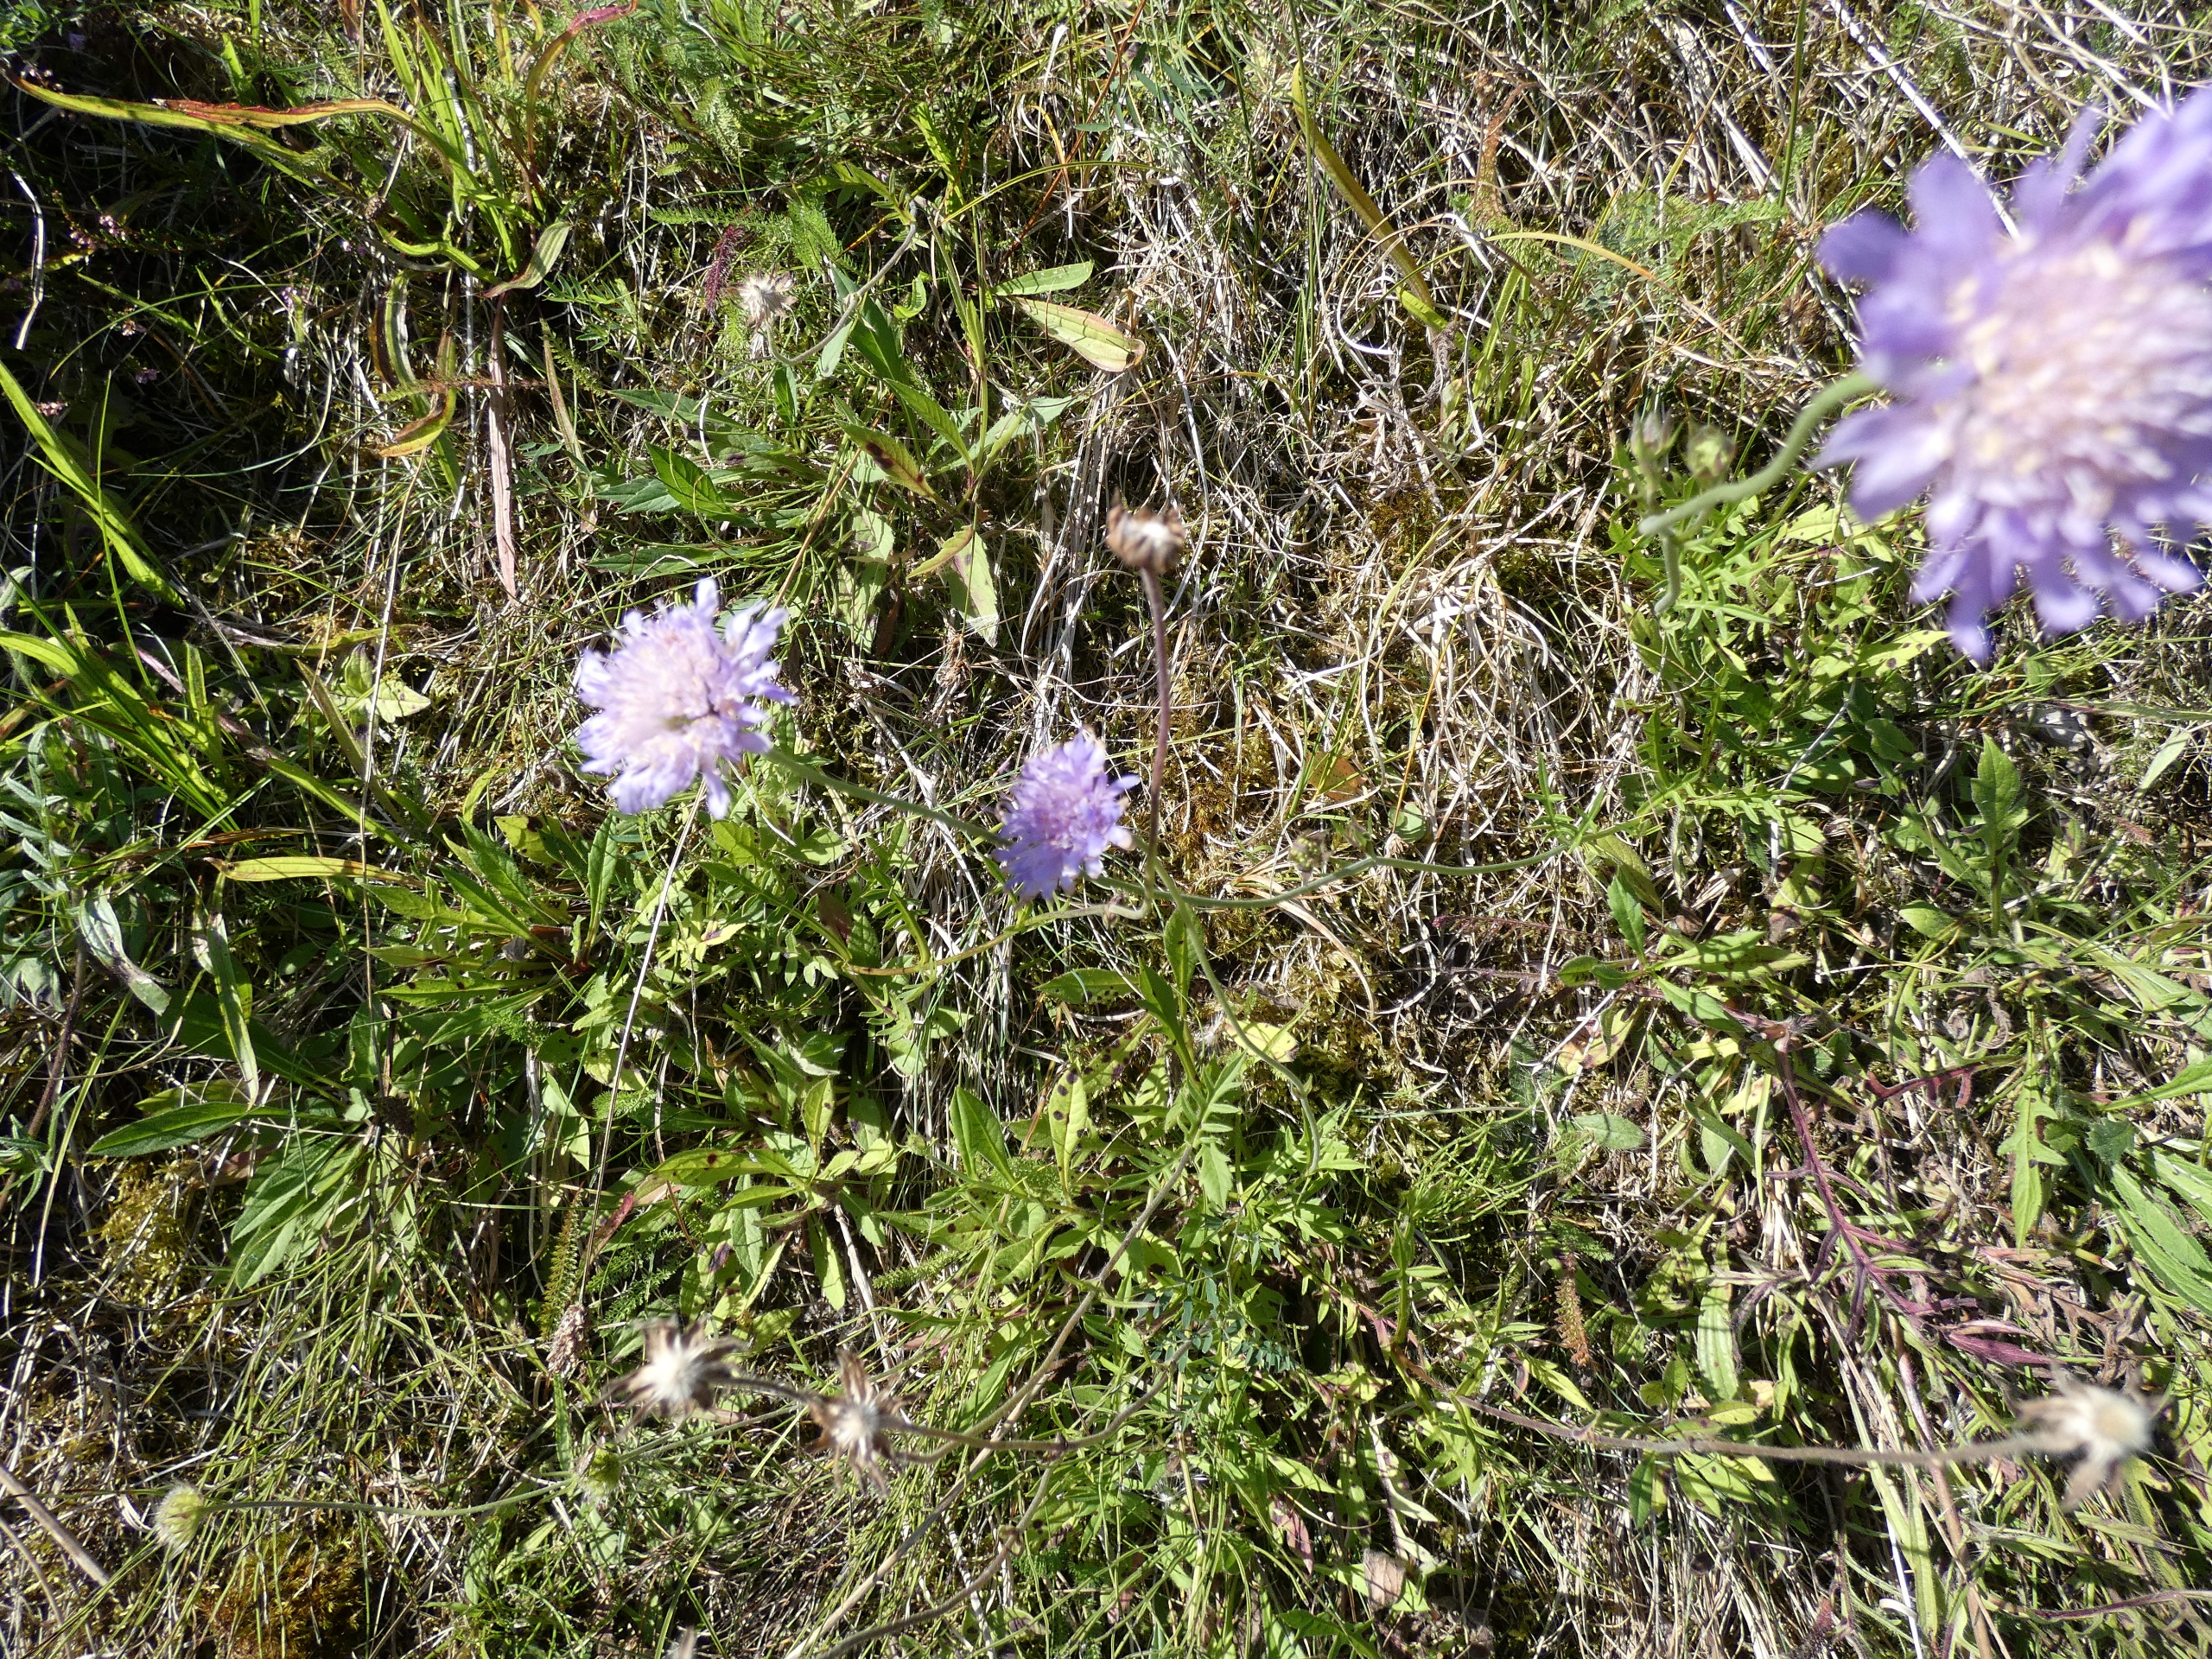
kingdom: Plantae
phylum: Tracheophyta
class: Magnoliopsida
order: Dipsacales
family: Caprifoliaceae
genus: Knautia
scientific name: Knautia arvensis
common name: Blåhat
